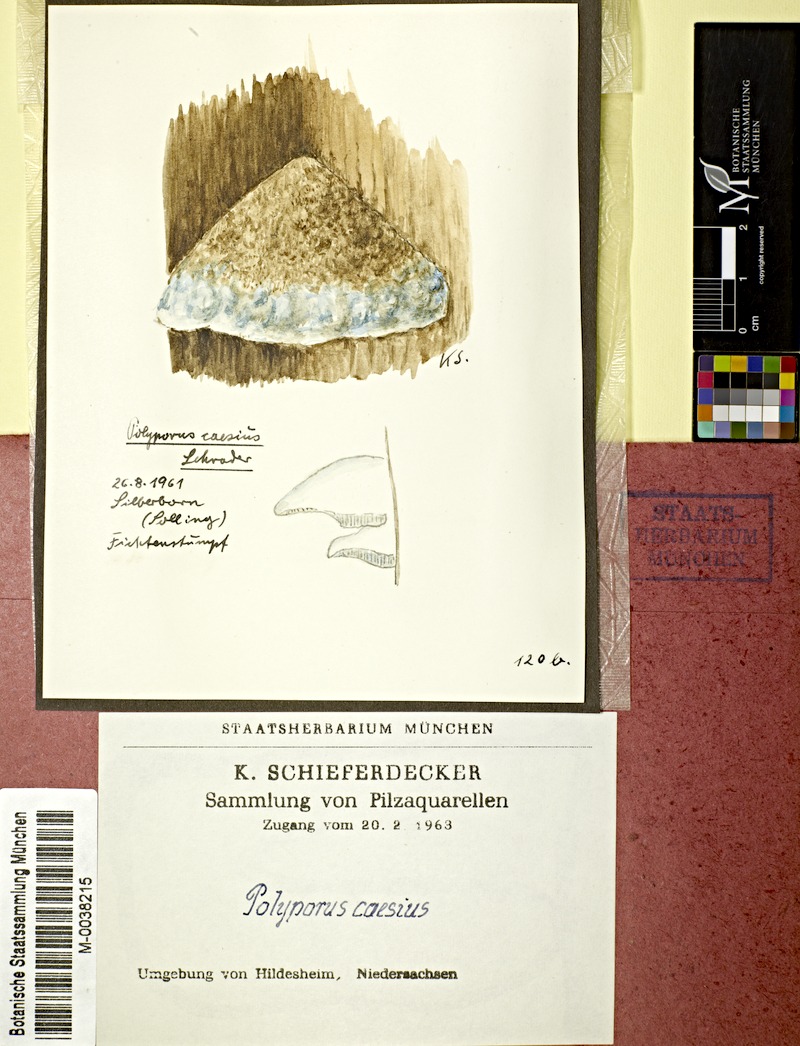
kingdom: Plantae
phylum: Tracheophyta
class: Pinopsida
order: Pinales
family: Pinaceae
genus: Picea
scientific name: Picea abies
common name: Norway spruce
